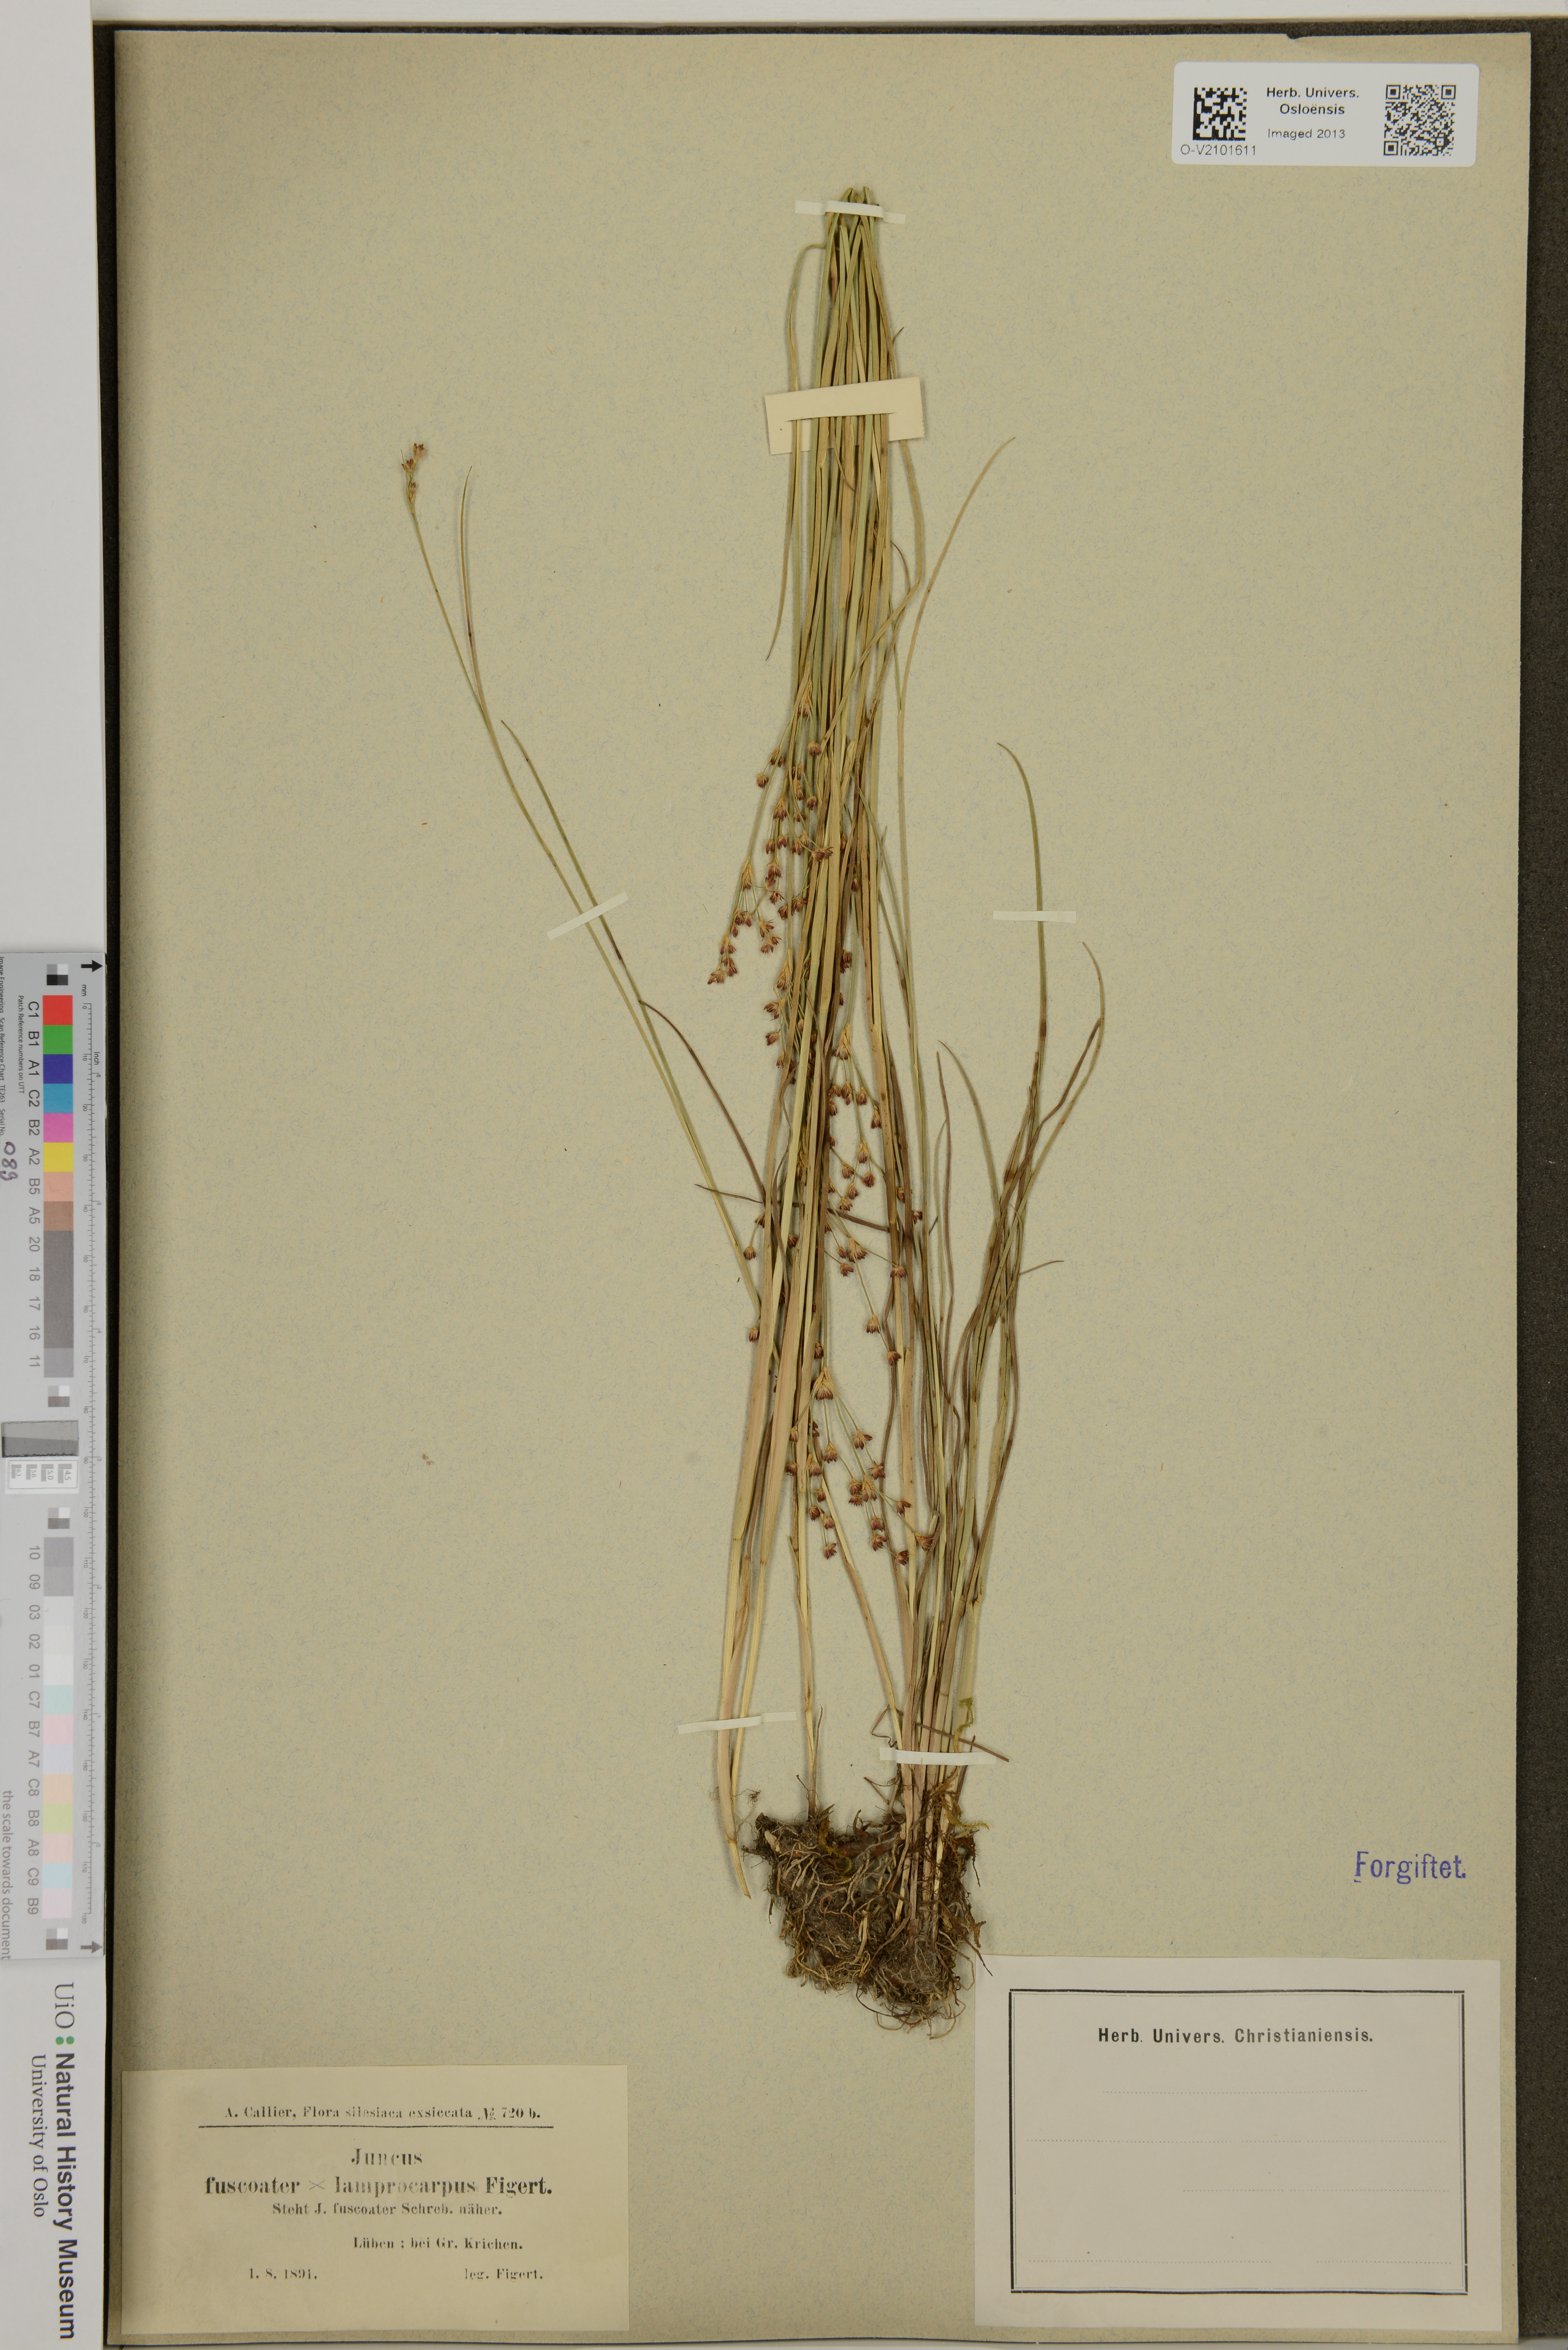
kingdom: Plantae
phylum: Tracheophyta
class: Liliopsida
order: Poales
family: Juncaceae
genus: Juncus
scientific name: Juncus
